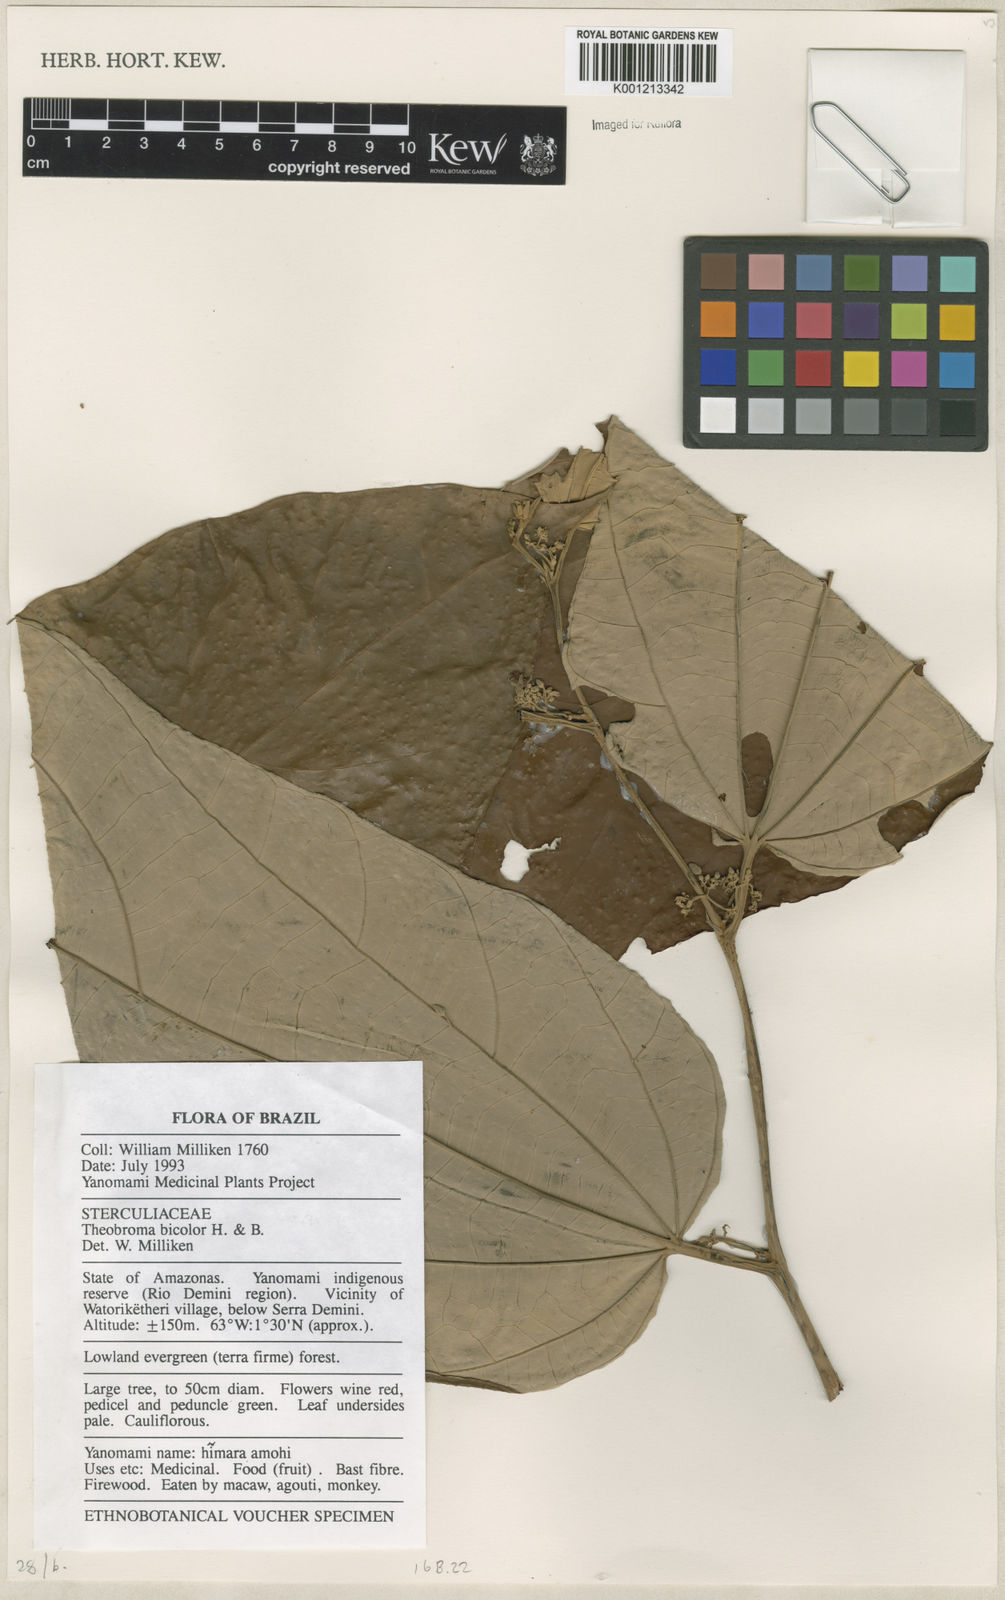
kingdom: Plantae
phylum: Tracheophyta
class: Magnoliopsida
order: Malvales
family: Malvaceae
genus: Theobroma
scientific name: Theobroma
